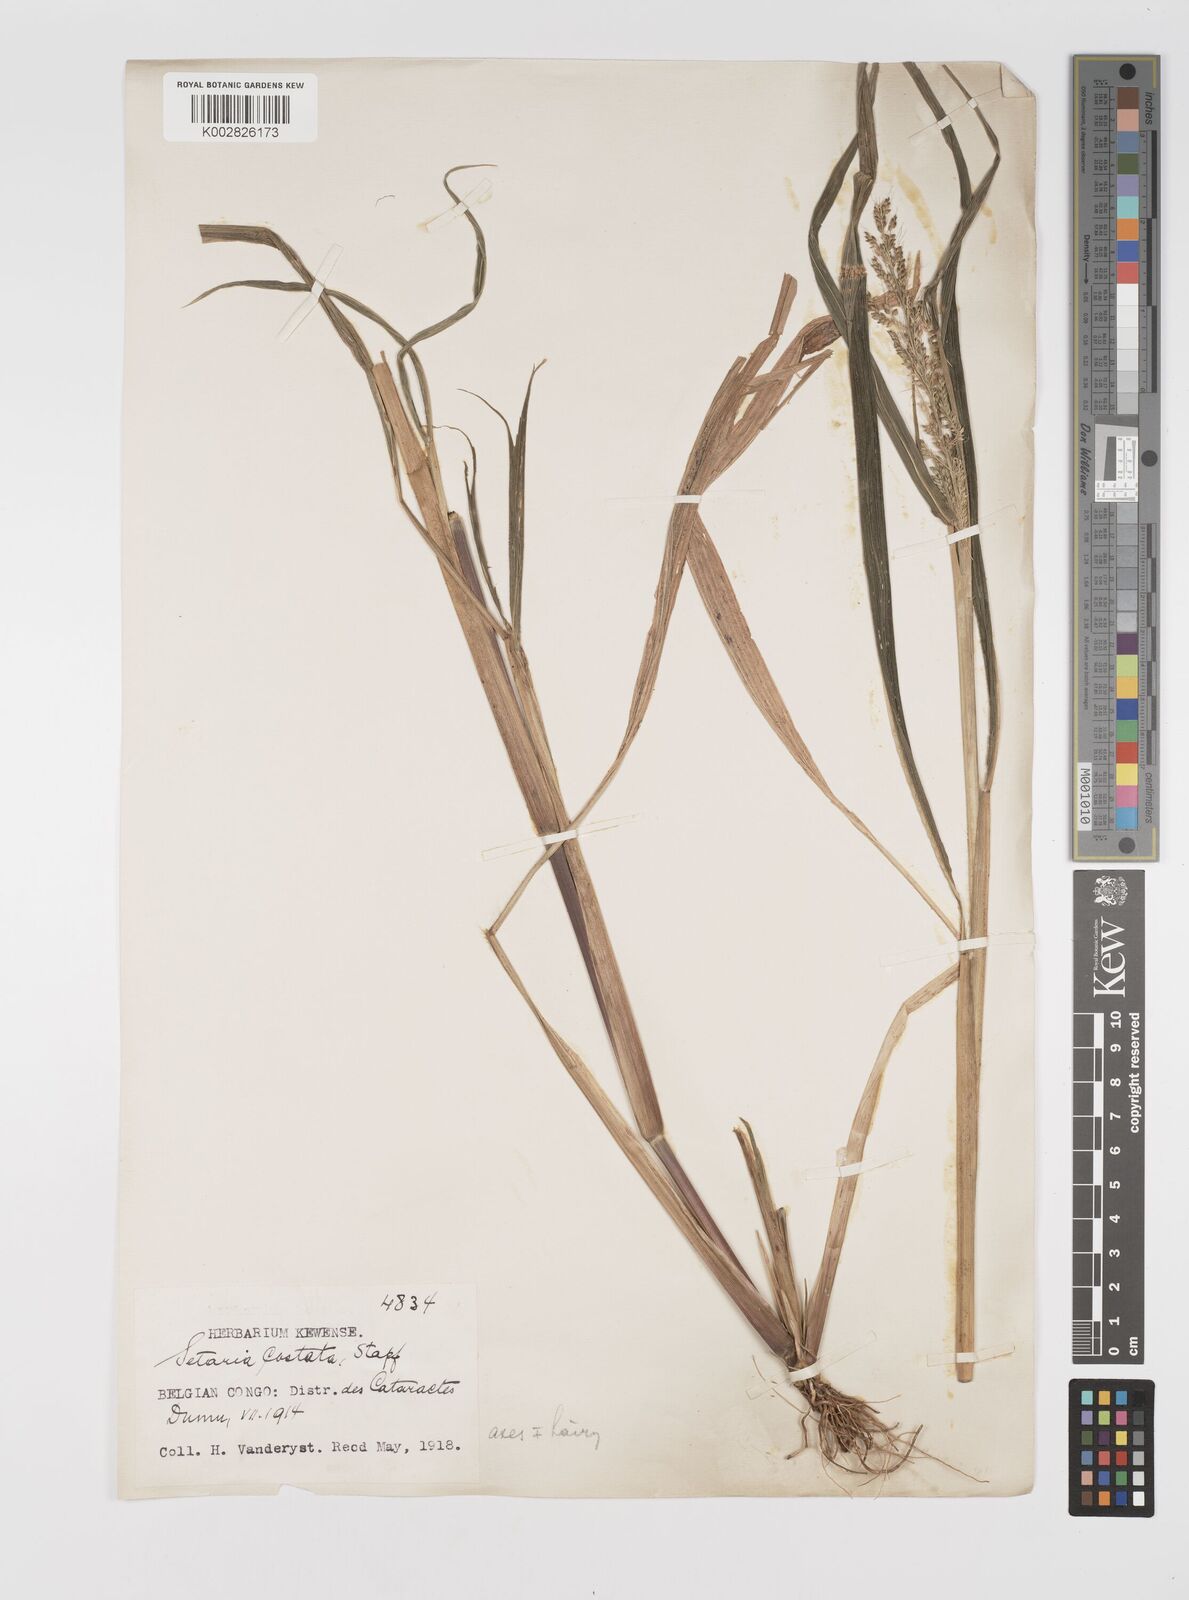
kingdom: Plantae
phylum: Tracheophyta
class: Liliopsida
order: Poales
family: Poaceae
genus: Setaria
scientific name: Setaria barbata
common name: East indian bristlegrass
